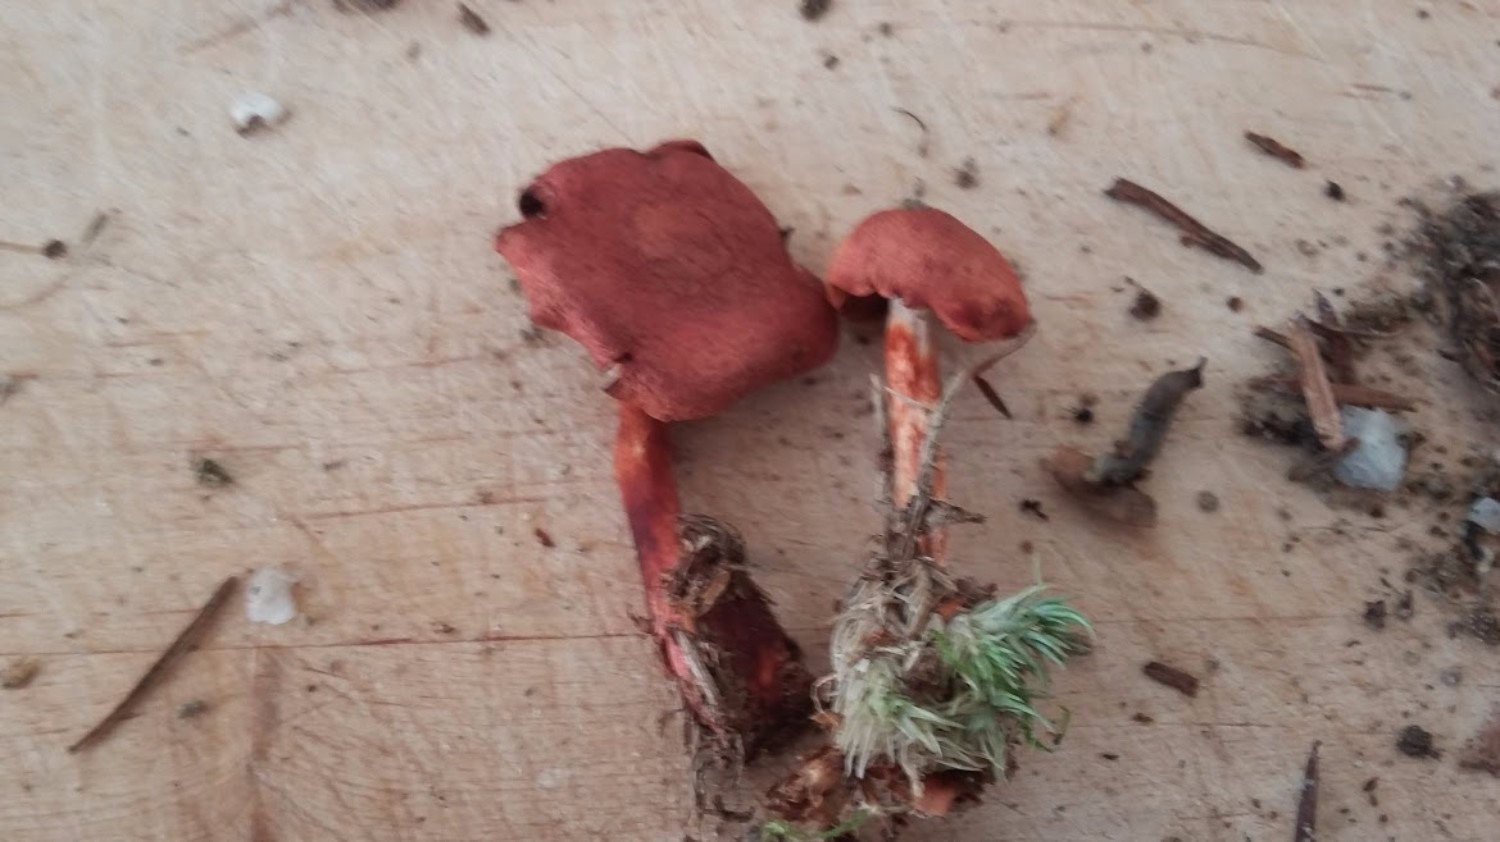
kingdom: Fungi
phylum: Basidiomycota
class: Agaricomycetes
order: Agaricales
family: Cortinariaceae
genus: Cortinarius
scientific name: Cortinarius bolaris
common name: cinnoberskællet slørhat
